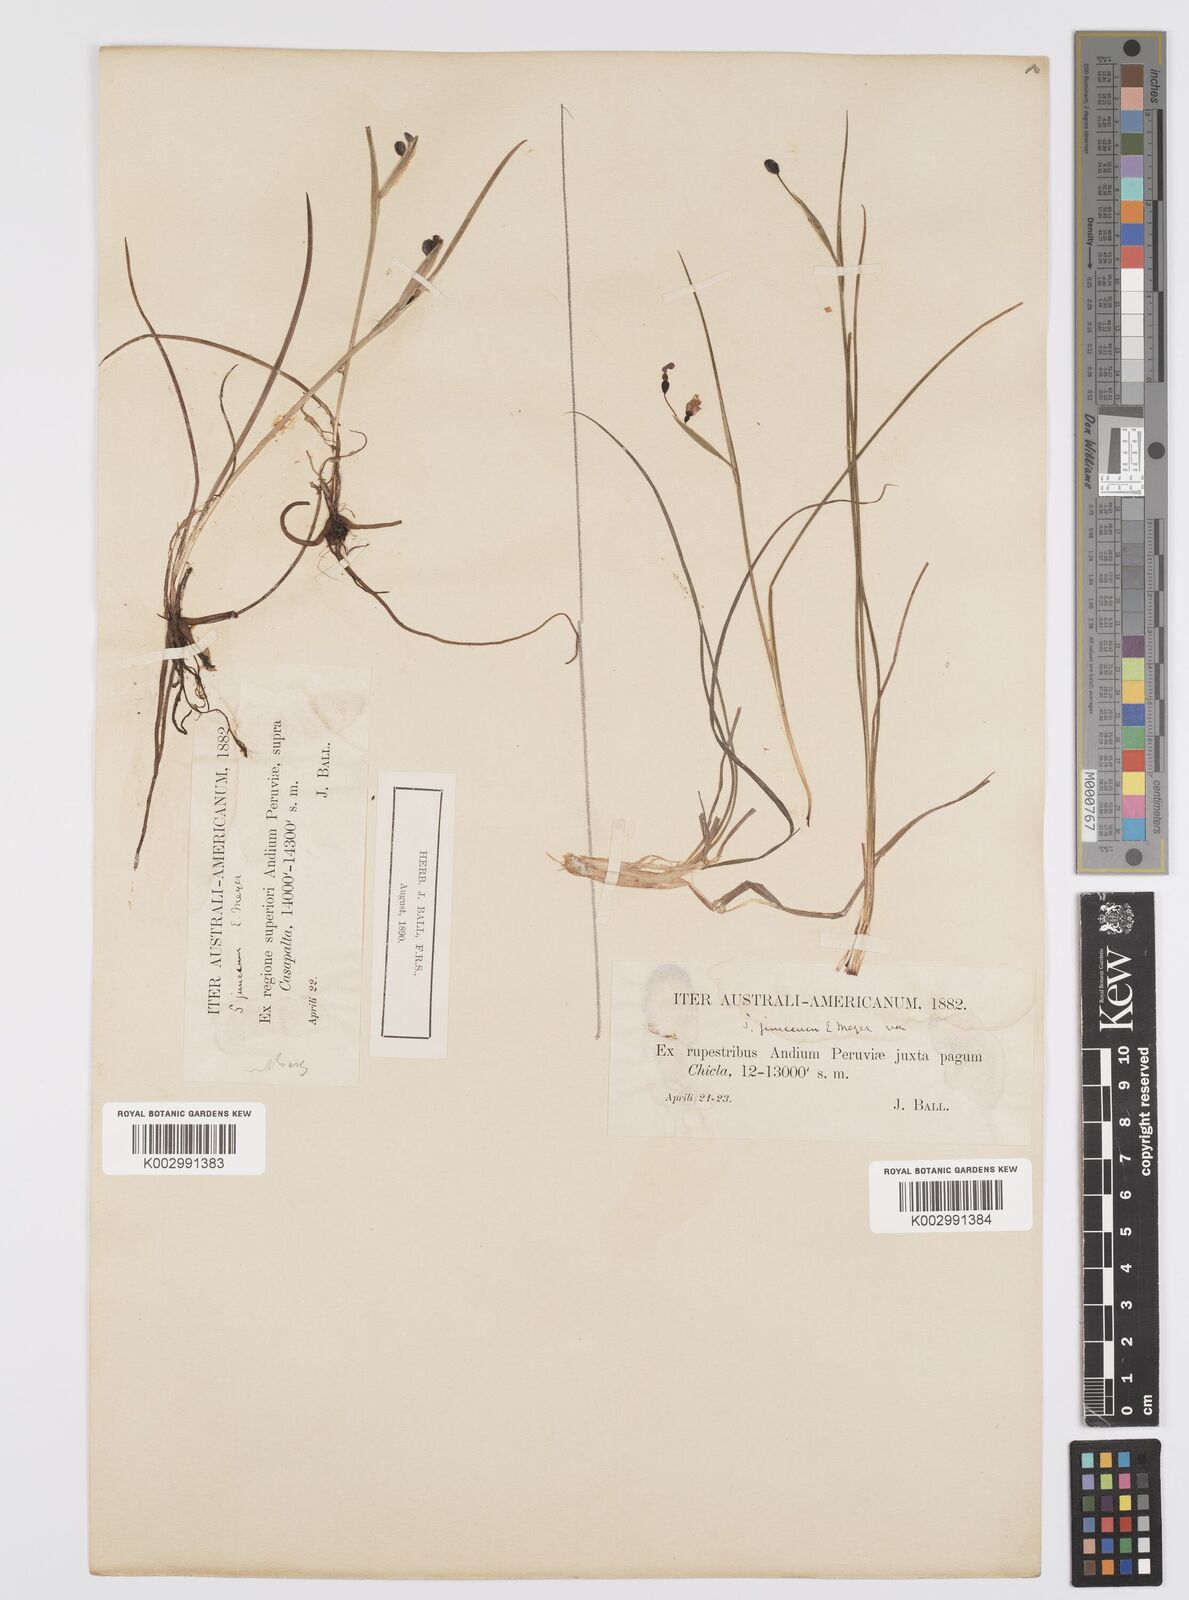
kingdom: Plantae
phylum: Tracheophyta
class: Liliopsida
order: Asparagales
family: Iridaceae
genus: Olsynium
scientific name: Olsynium junceum
